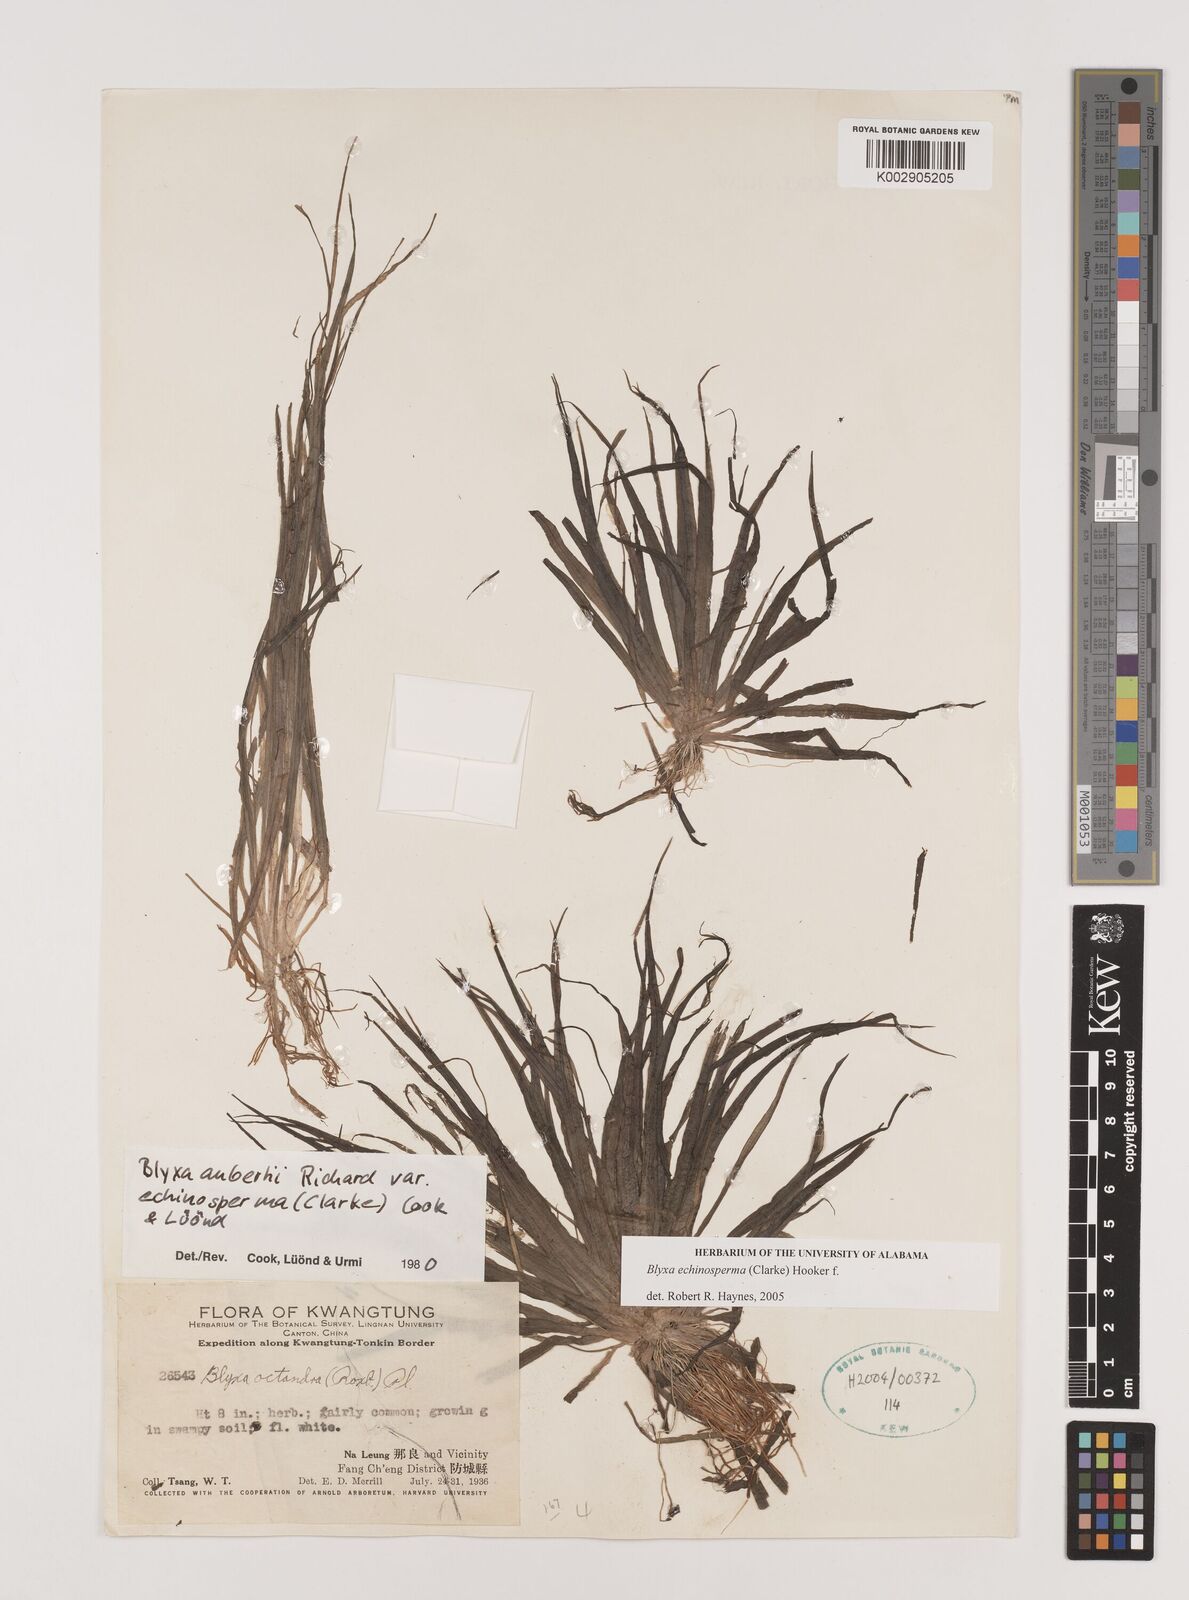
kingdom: Plantae
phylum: Tracheophyta
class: Liliopsida
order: Alismatales
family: Hydrocharitaceae
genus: Blyxa
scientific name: Blyxa echinosperma
